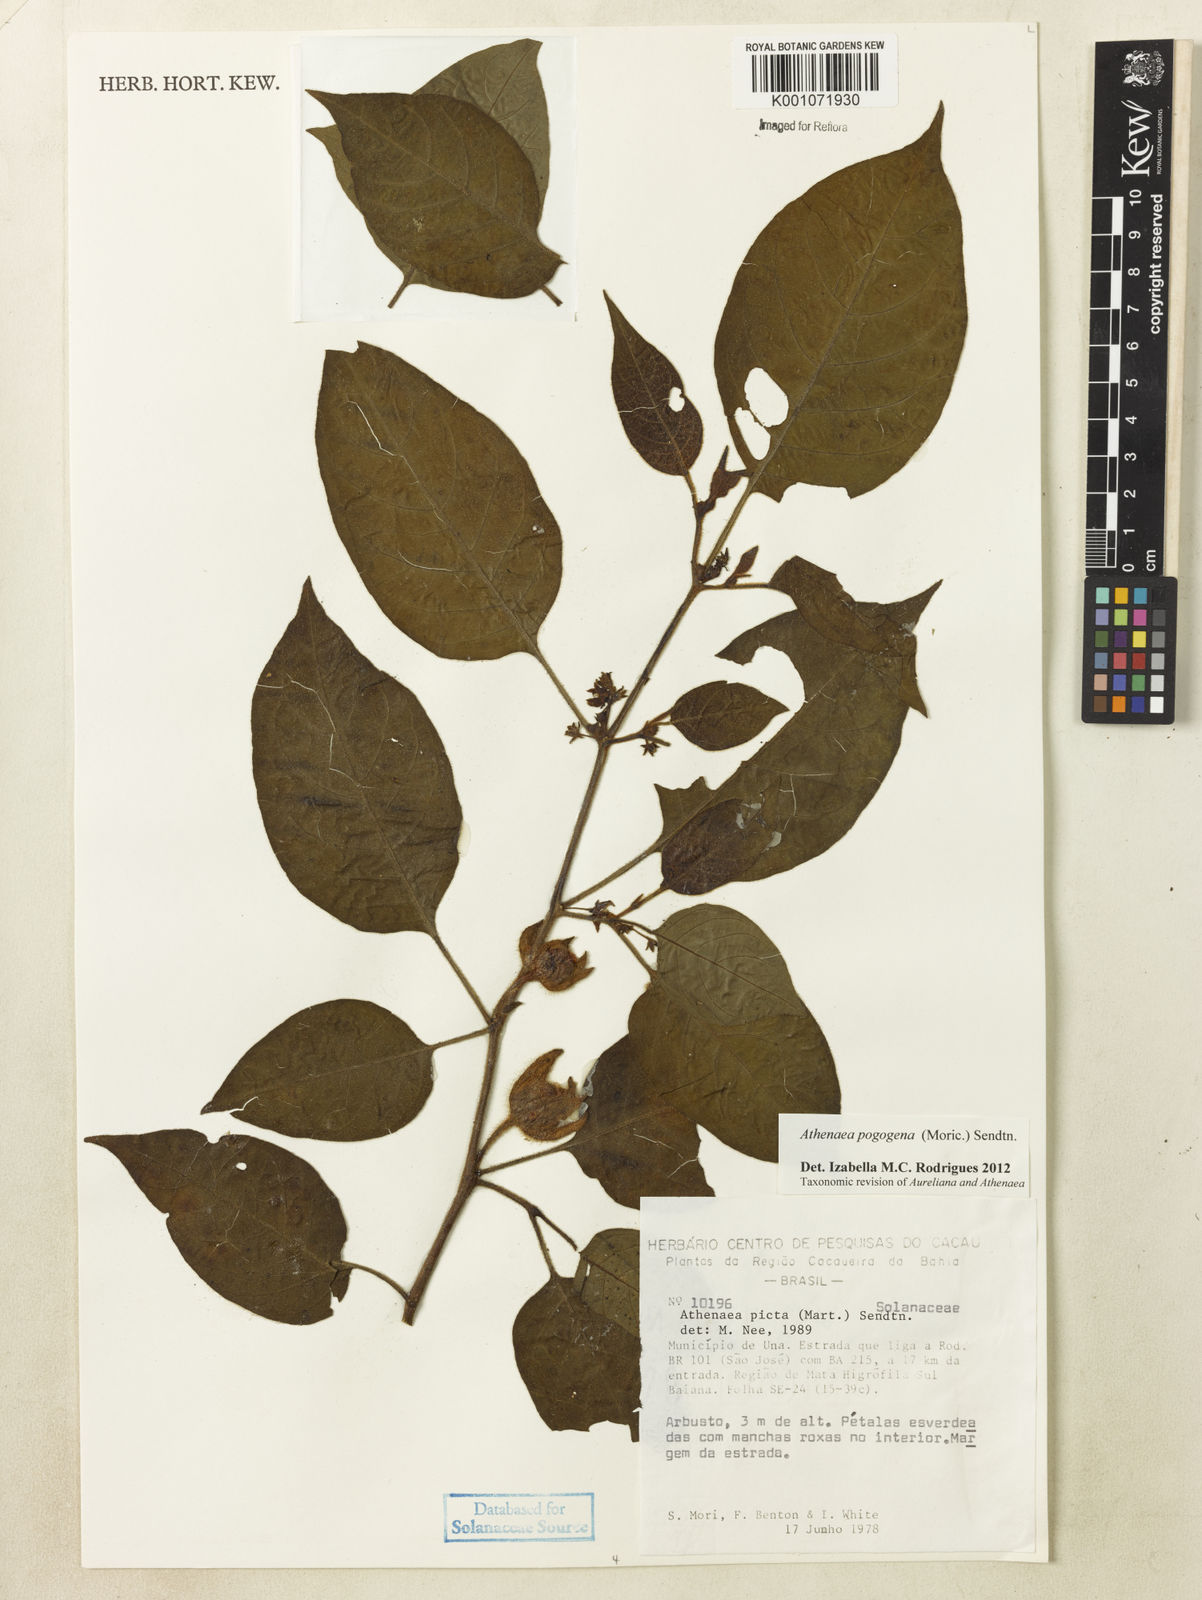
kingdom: Plantae
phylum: Tracheophyta
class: Magnoliopsida
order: Solanales
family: Solanaceae
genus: Athenaea
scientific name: Athenaea pogogena
